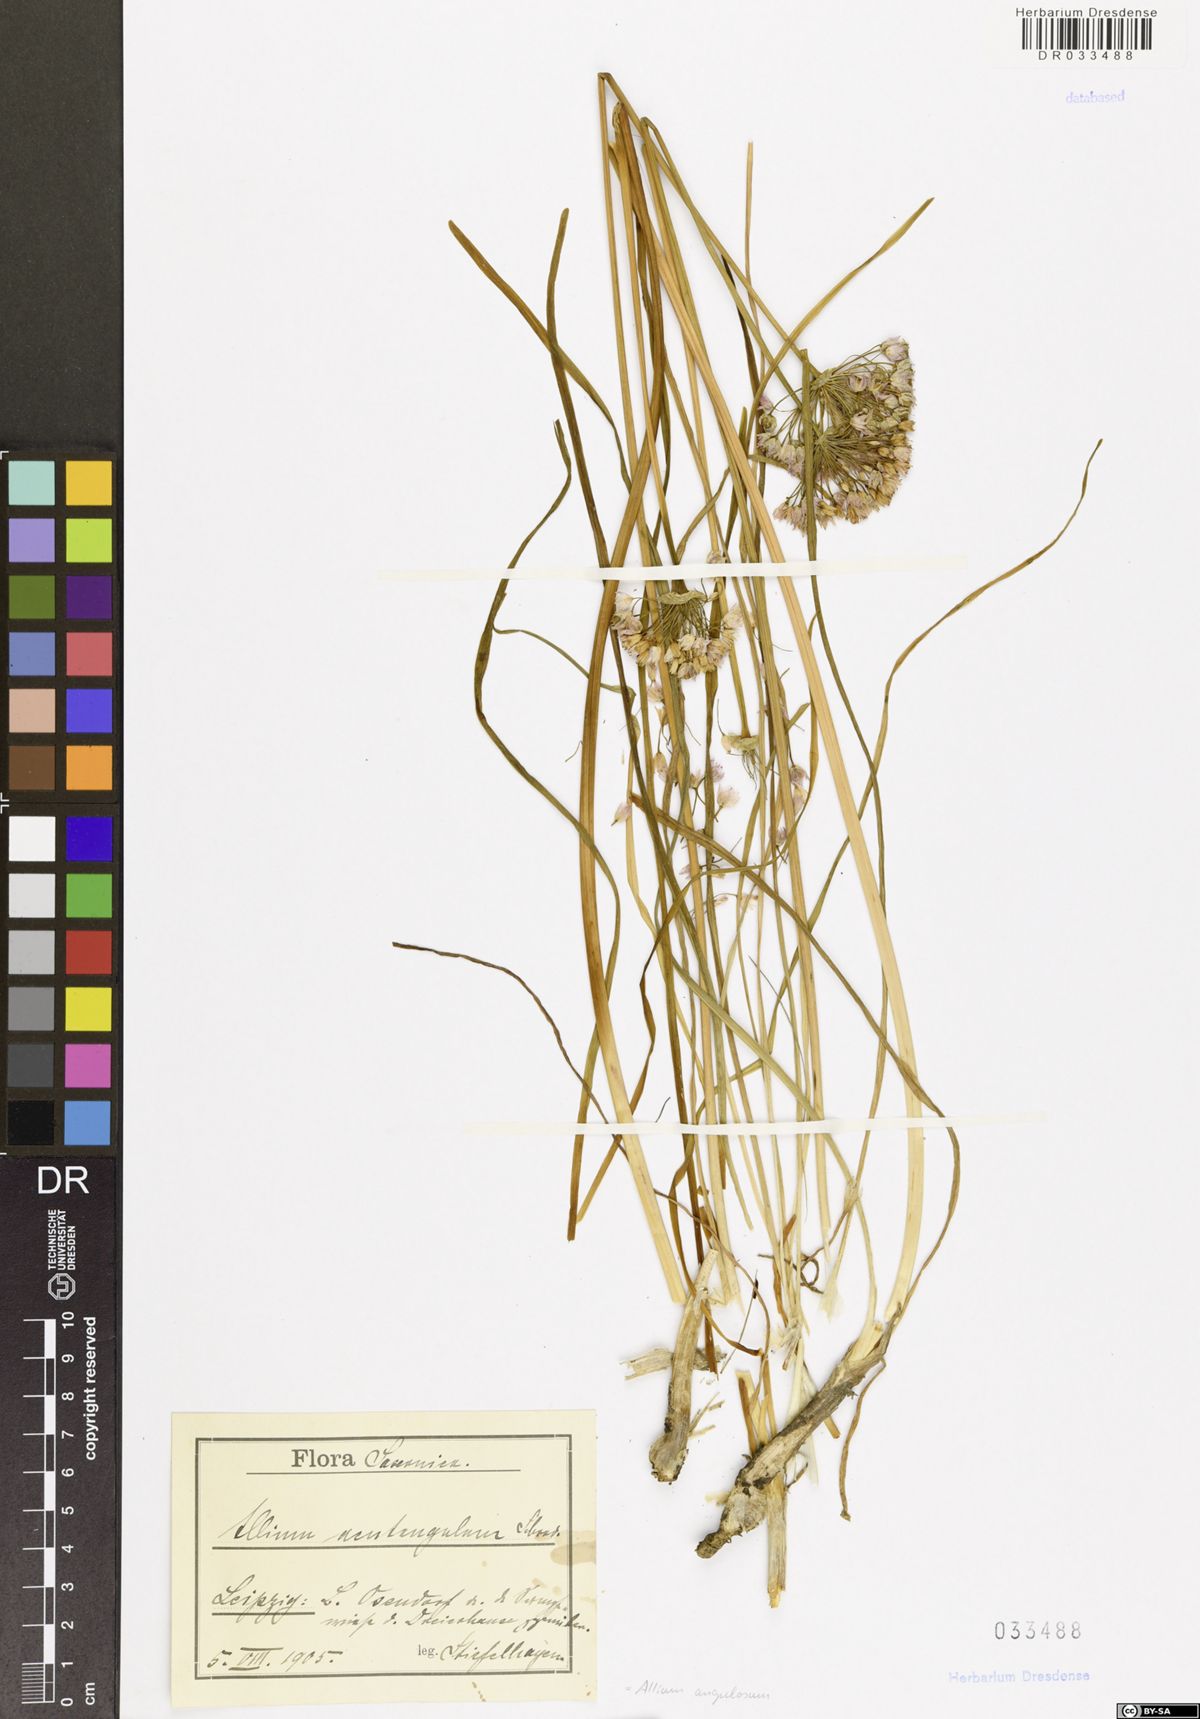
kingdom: Plantae
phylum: Tracheophyta
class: Liliopsida
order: Asparagales
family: Amaryllidaceae
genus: Allium
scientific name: Allium angulosum
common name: Mouse garlic
